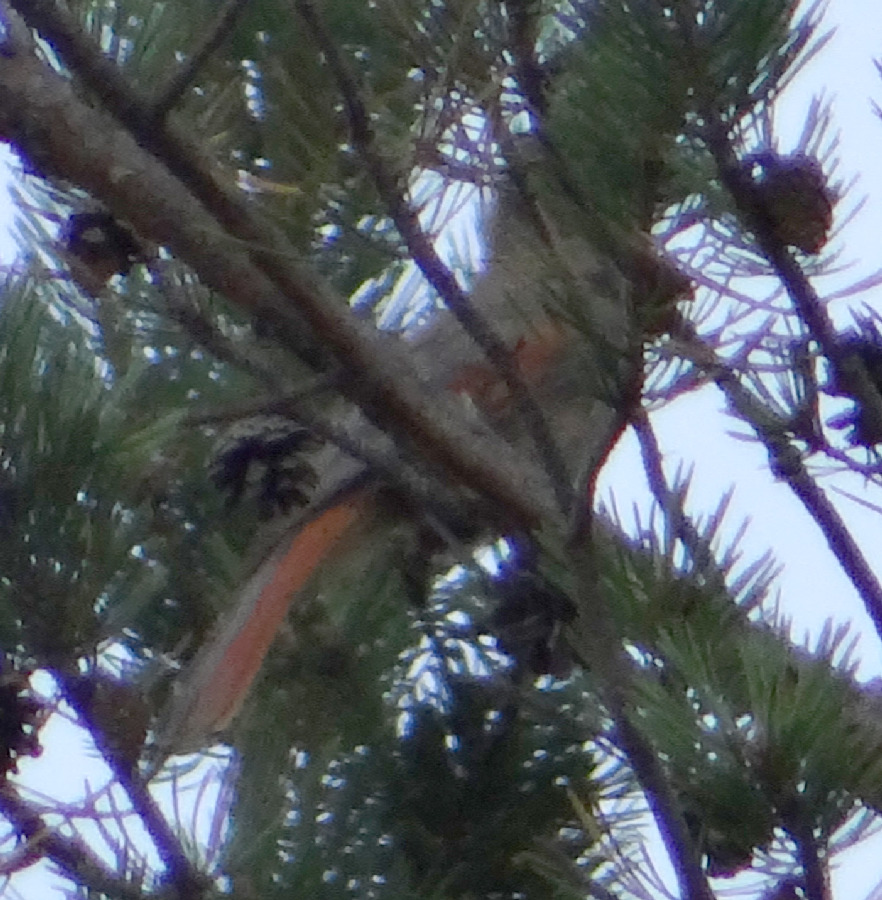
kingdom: Animalia
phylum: Chordata
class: Aves
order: Passeriformes
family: Corvidae
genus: Perisoreus
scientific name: Perisoreus infaustus
